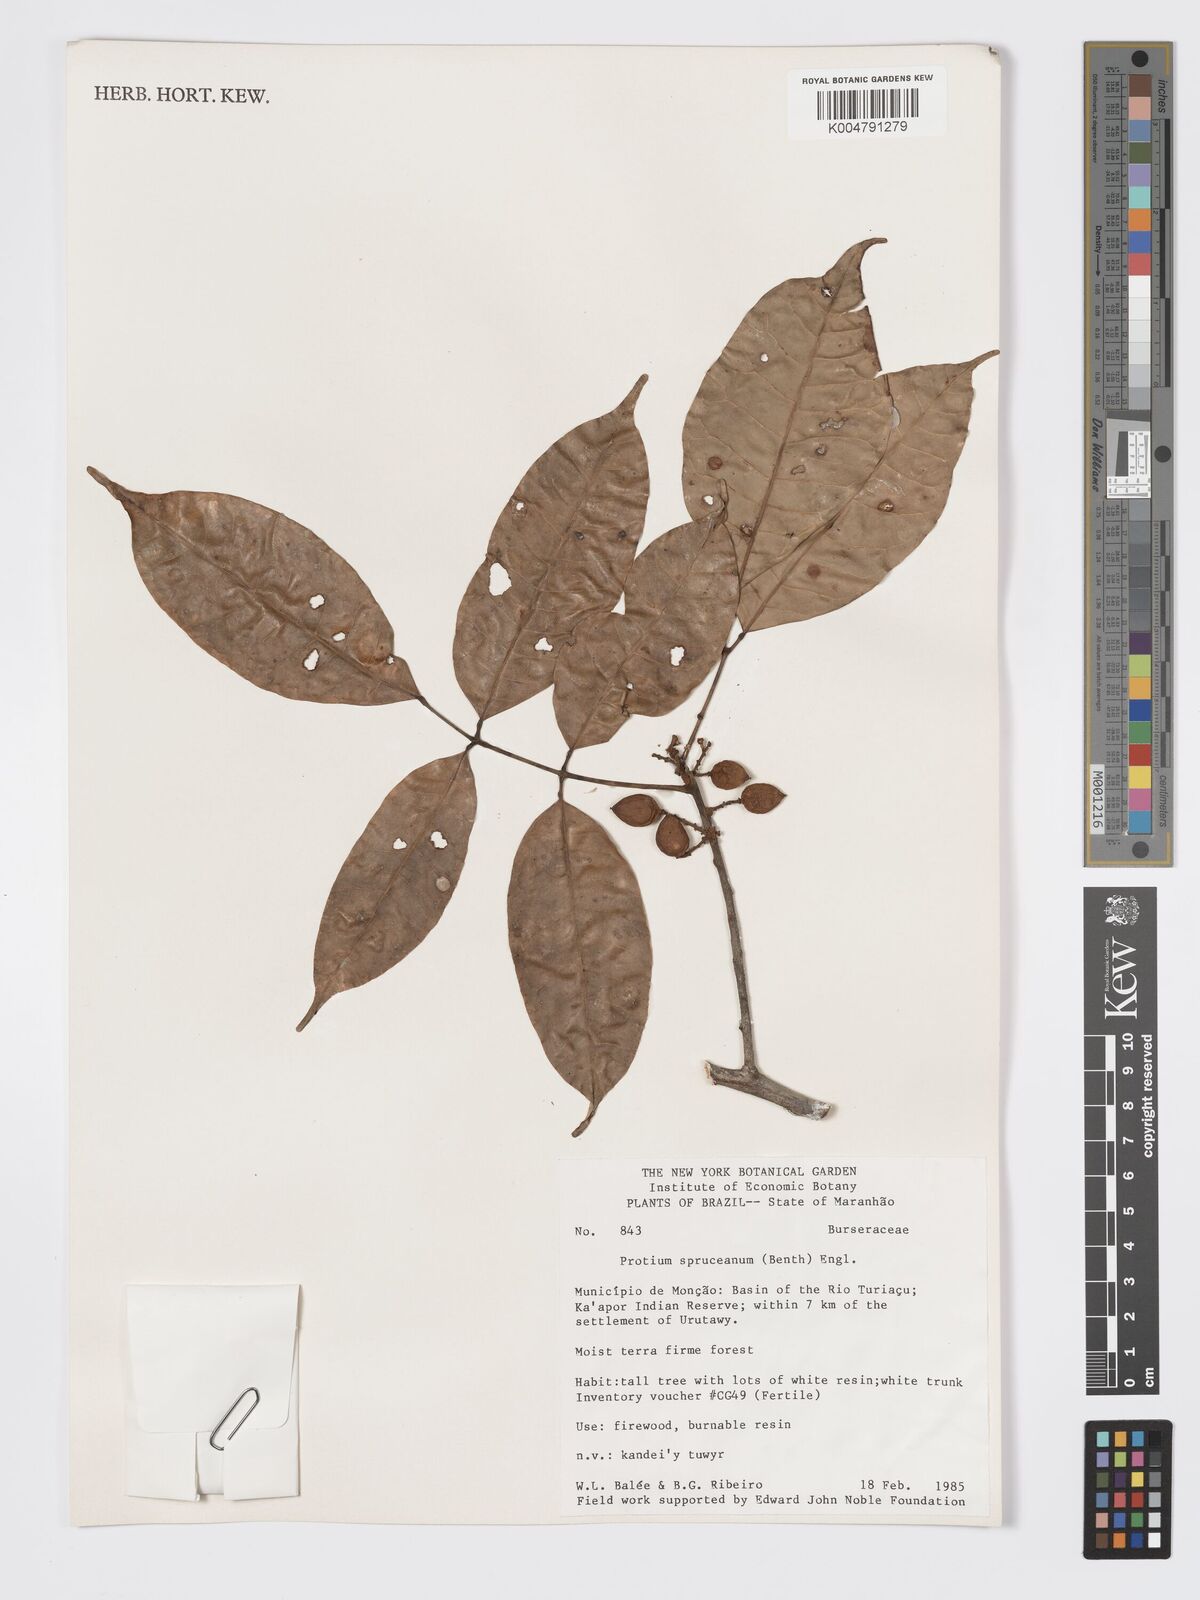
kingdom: Plantae
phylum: Tracheophyta
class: Magnoliopsida
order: Sapindales
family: Burseraceae
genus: Protium
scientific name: Protium spruceanum
